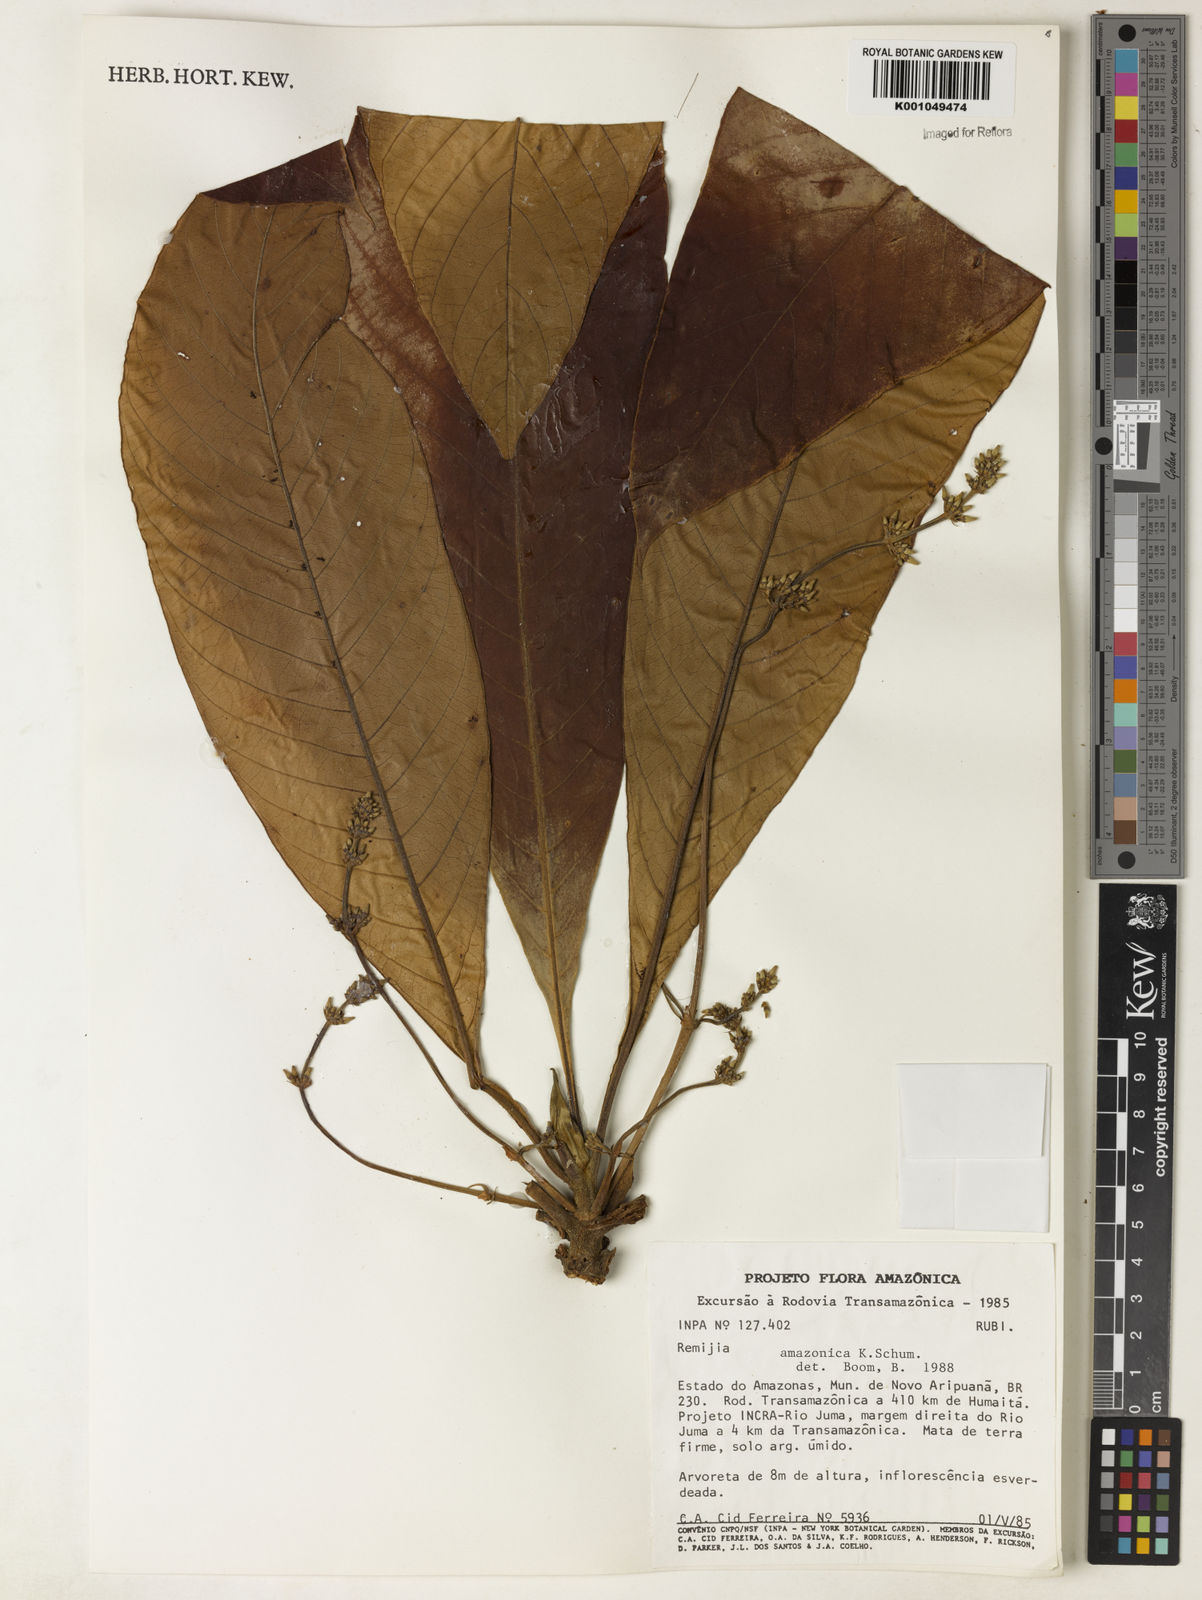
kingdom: Plantae
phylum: Tracheophyta
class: Magnoliopsida
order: Gentianales
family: Rubiaceae
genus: Remijia
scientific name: Remijia amazonica
